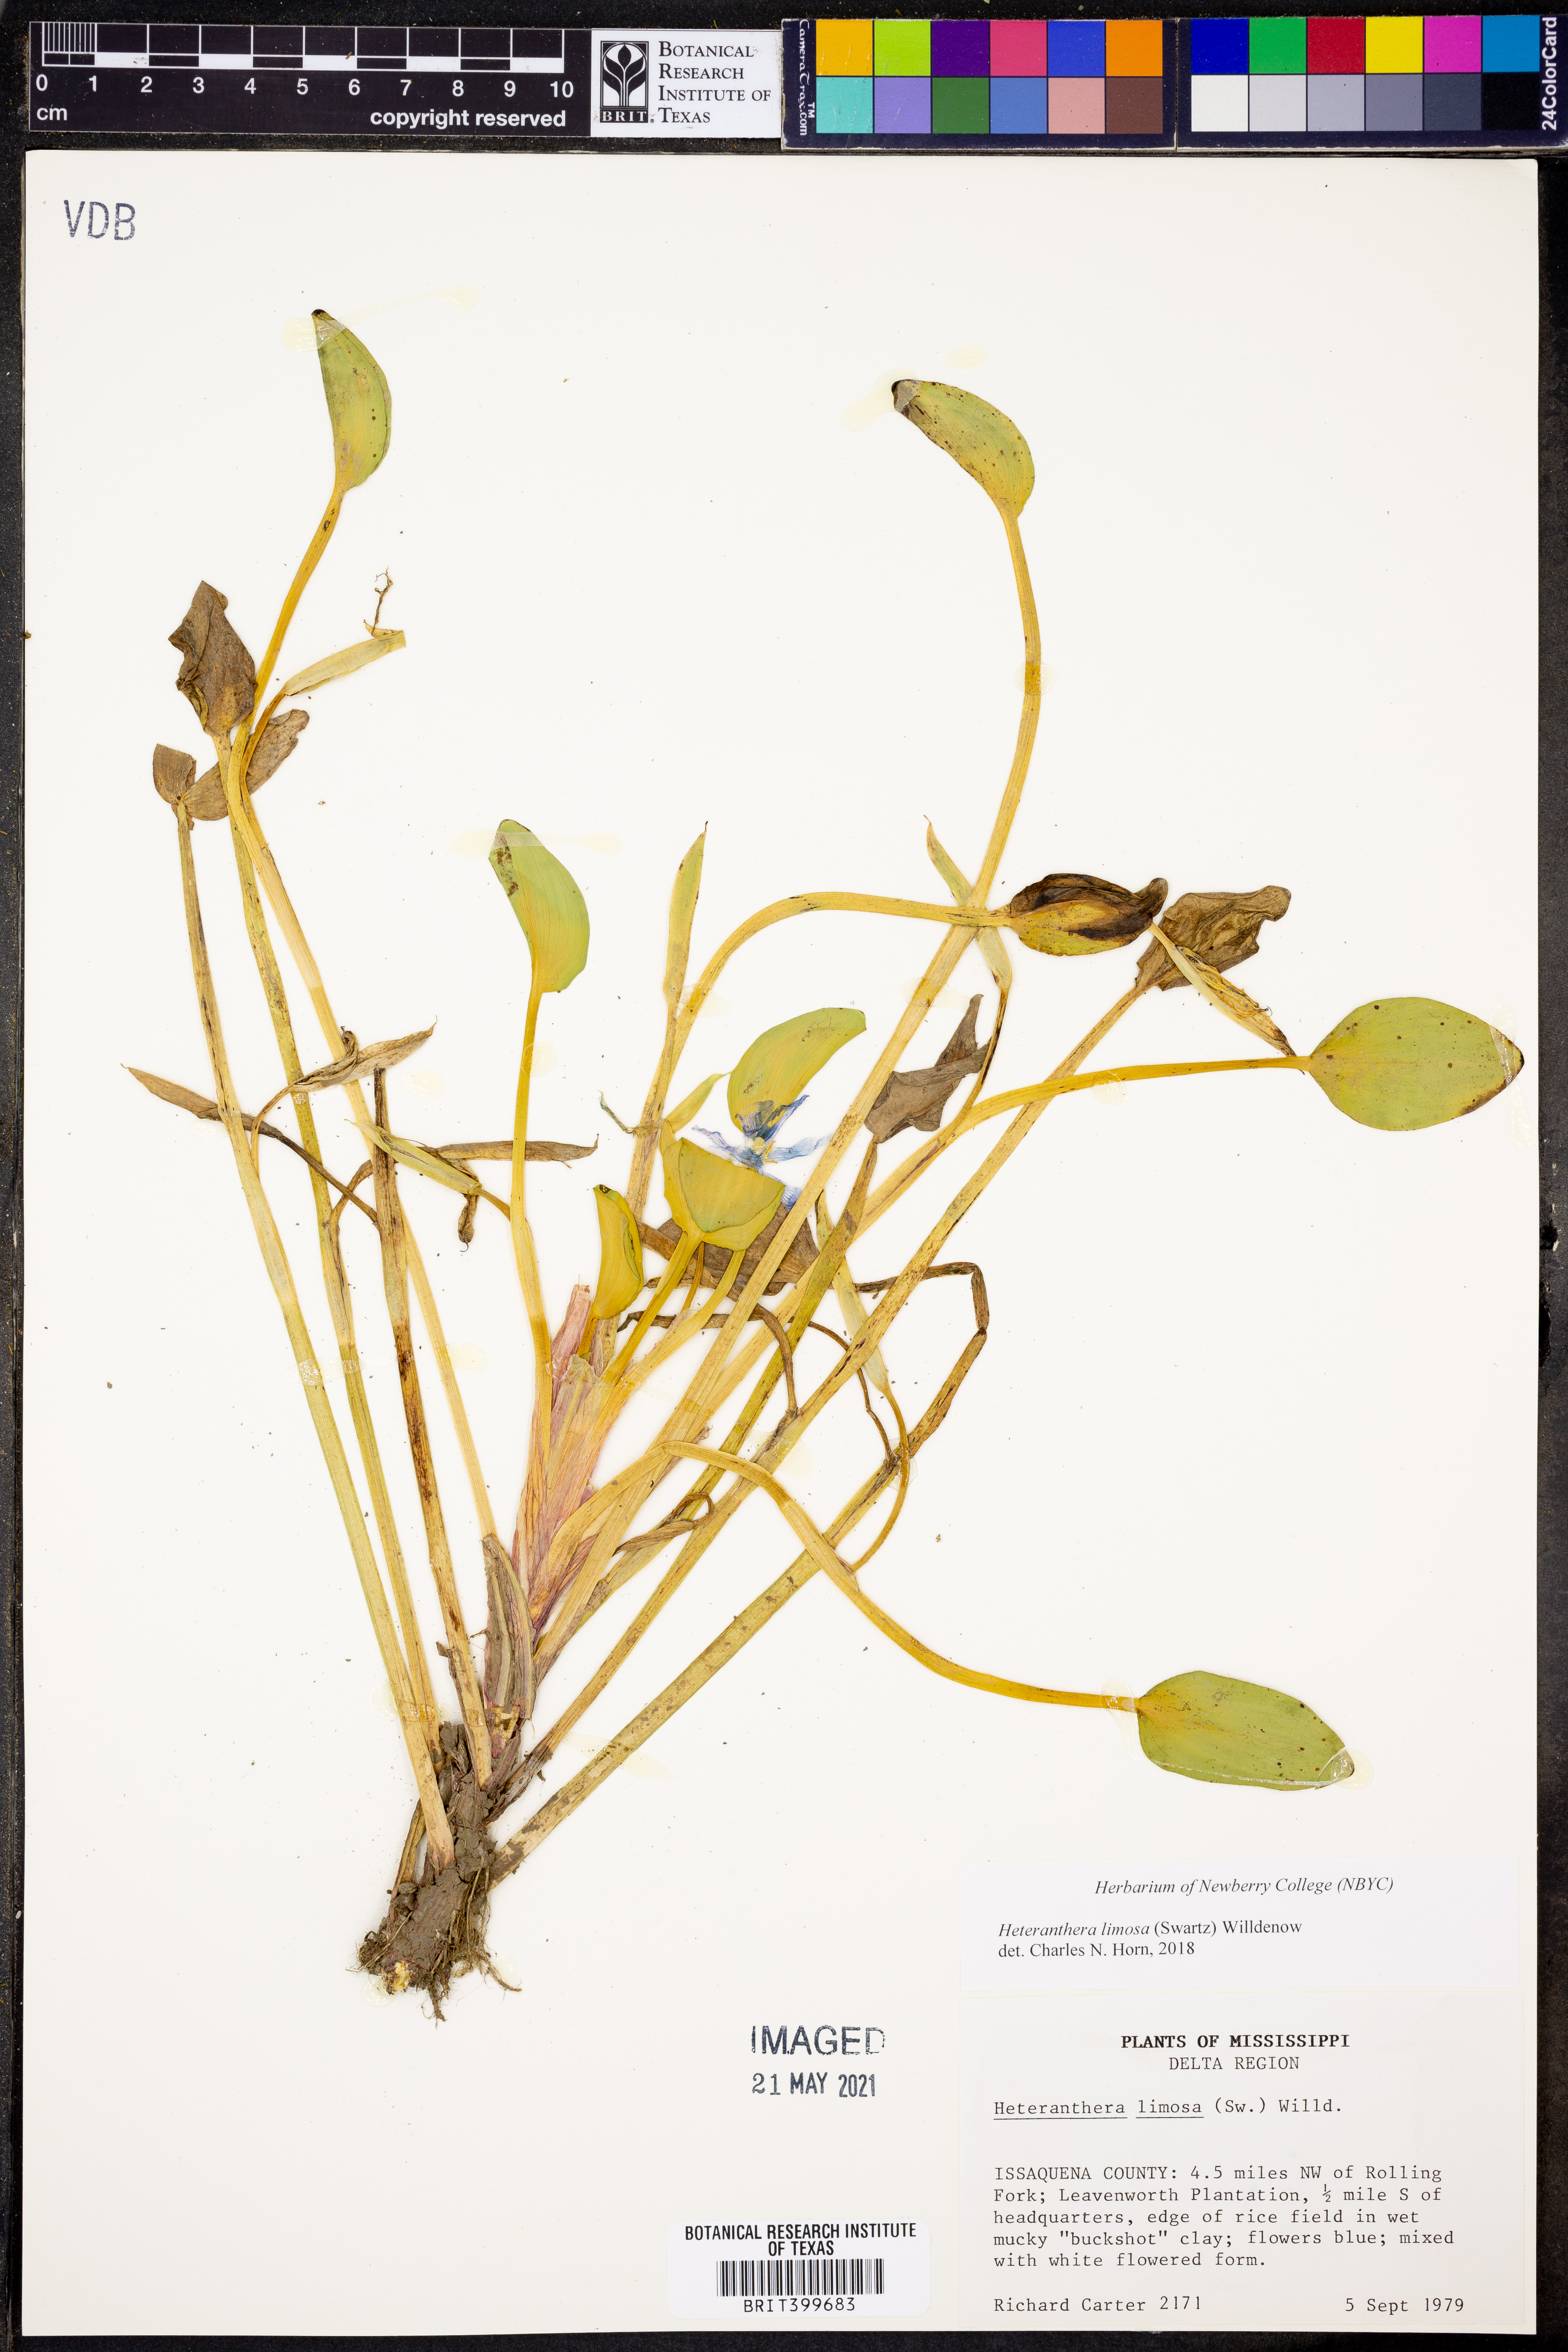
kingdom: Plantae
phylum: Tracheophyta
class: Liliopsida
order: Commelinales
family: Pontederiaceae
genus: Heteranthera
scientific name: Heteranthera limosa
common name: Blue mud-plantain
